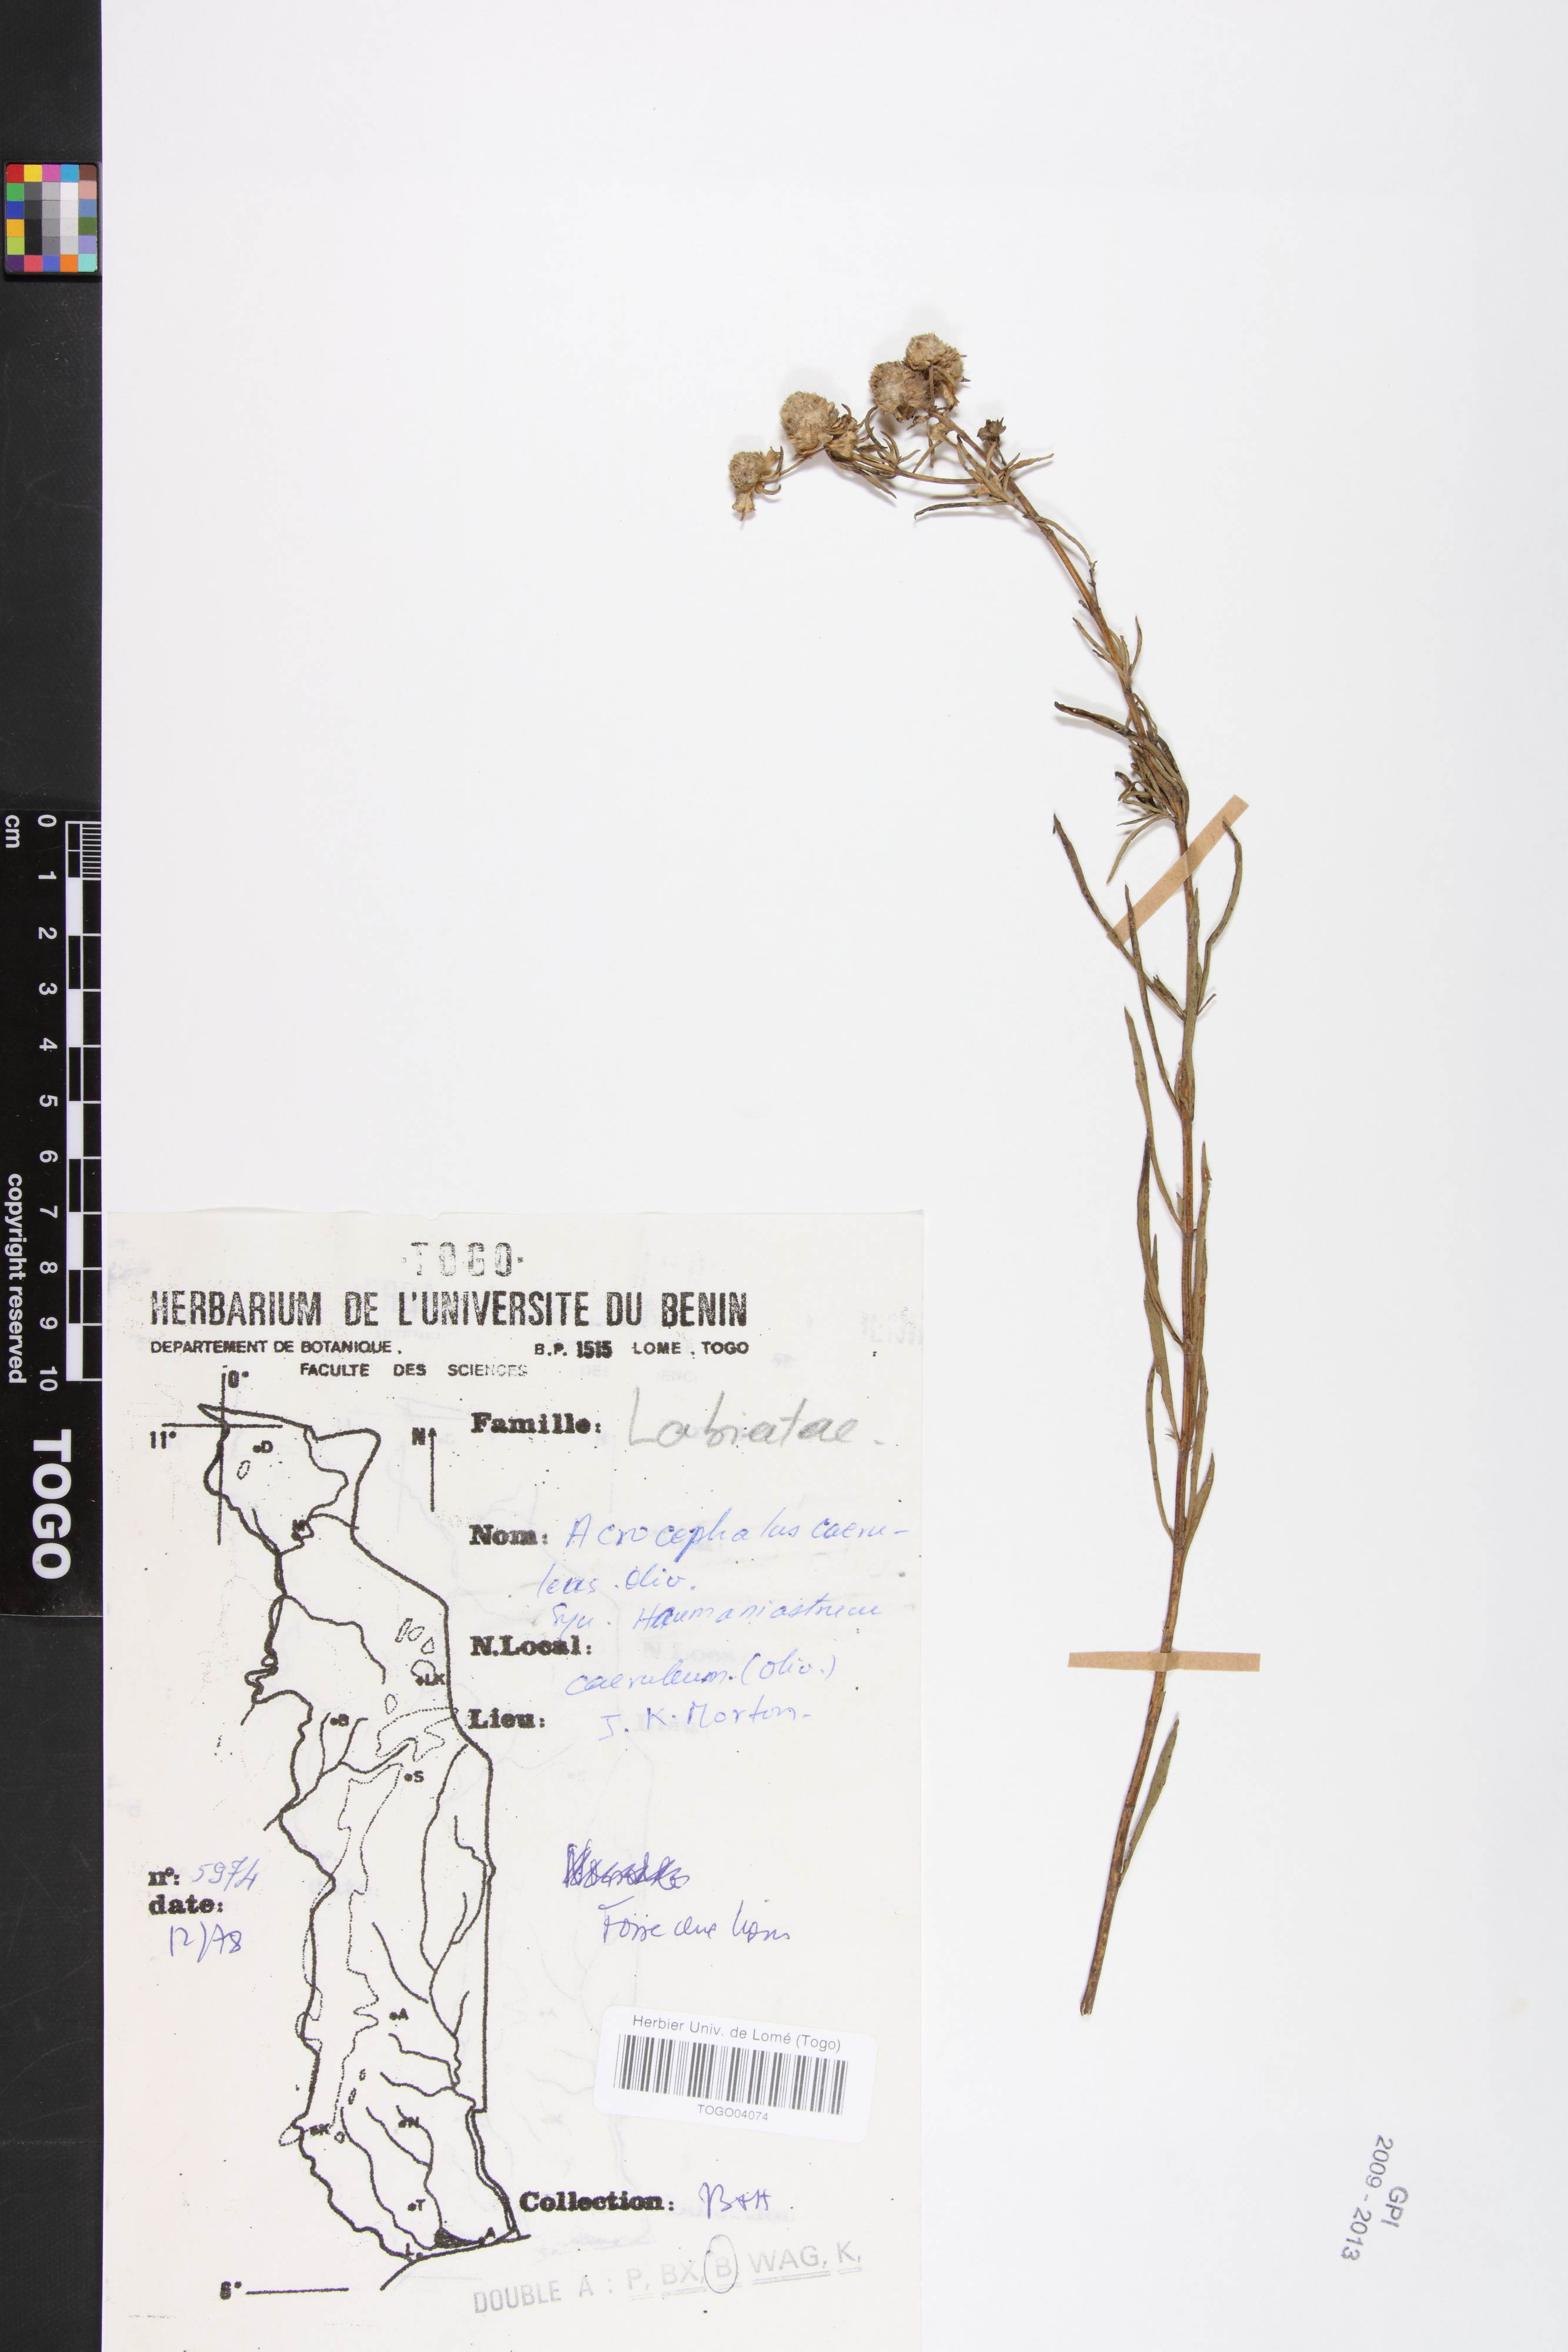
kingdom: Plantae
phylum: Tracheophyta
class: Magnoliopsida
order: Lamiales
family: Lamiaceae
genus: Haumaniastrum
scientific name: Haumaniastrum caeruleum
